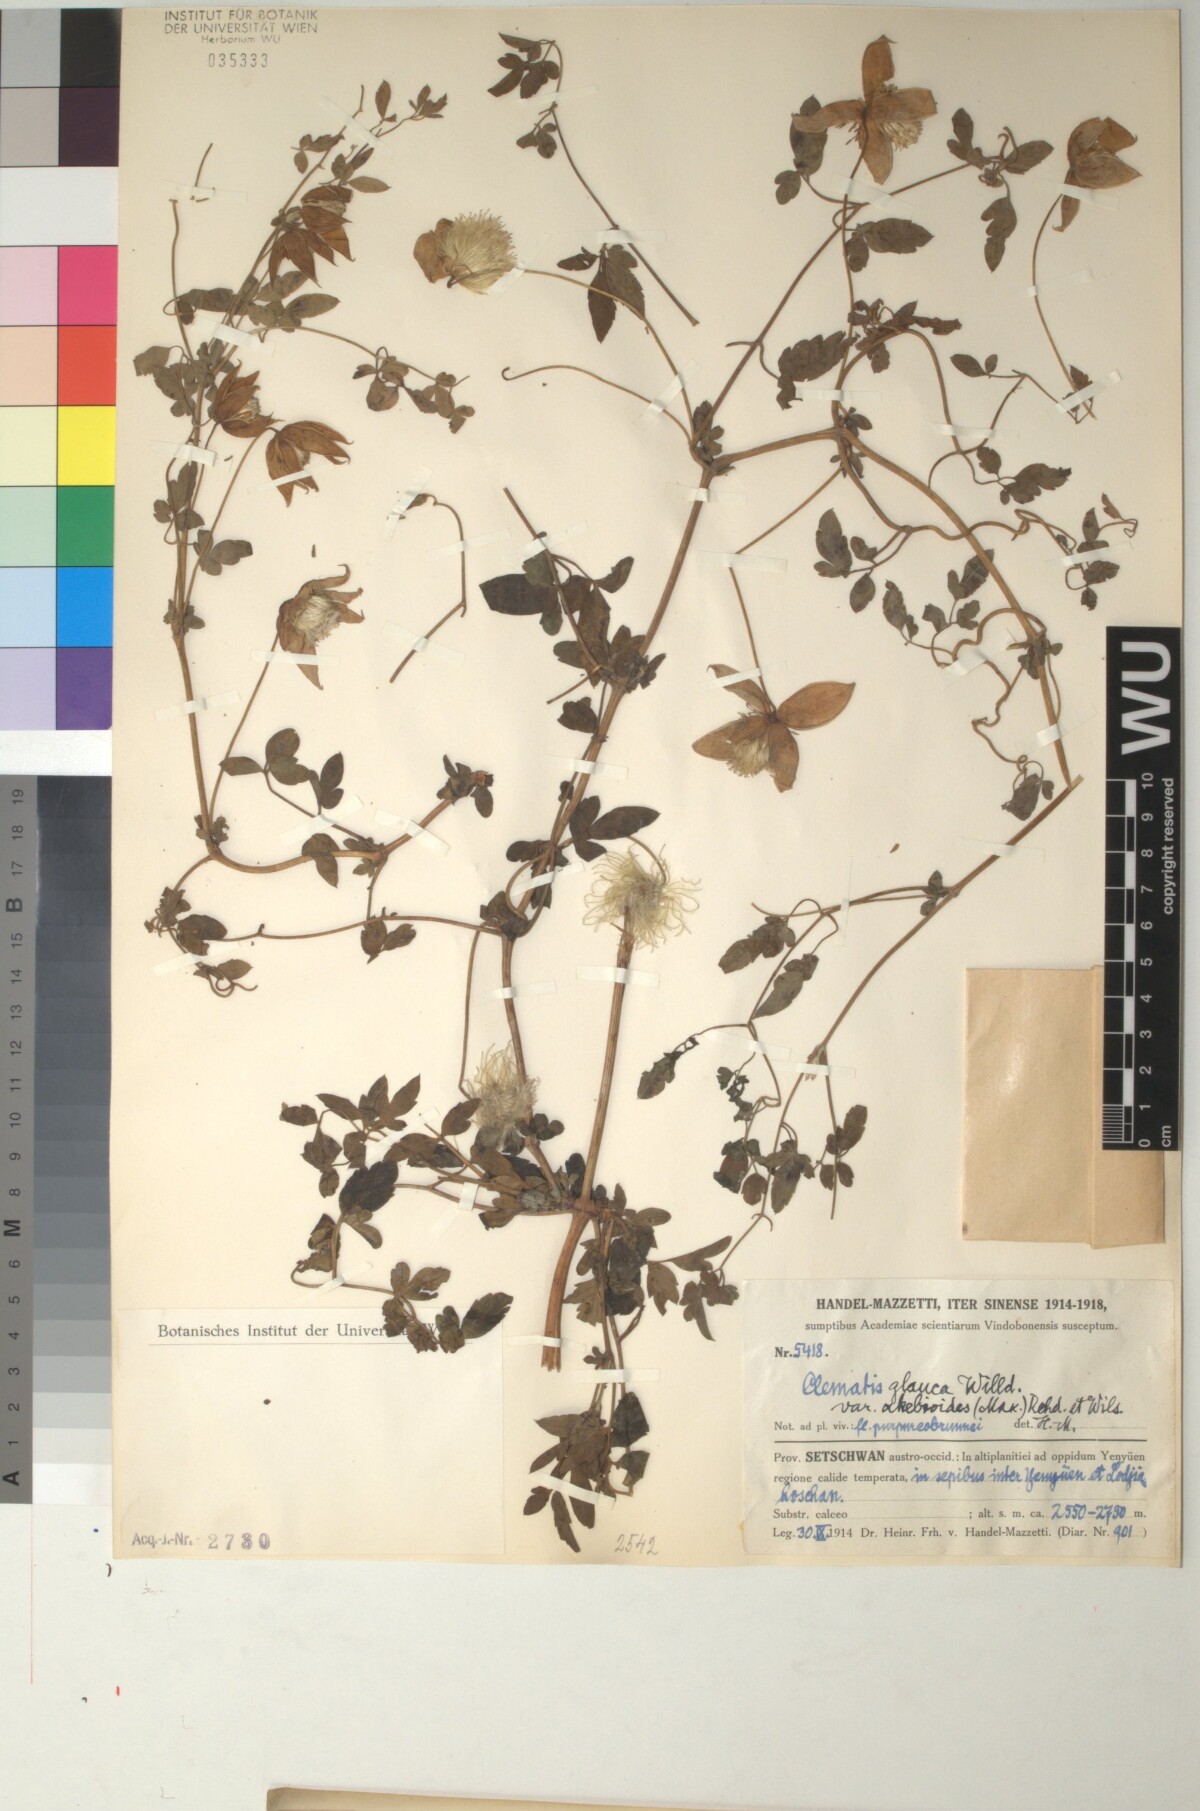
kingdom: Plantae
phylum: Tracheophyta
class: Magnoliopsida
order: Ranunculales
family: Ranunculaceae
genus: Clematis
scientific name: Clematis akebioides
